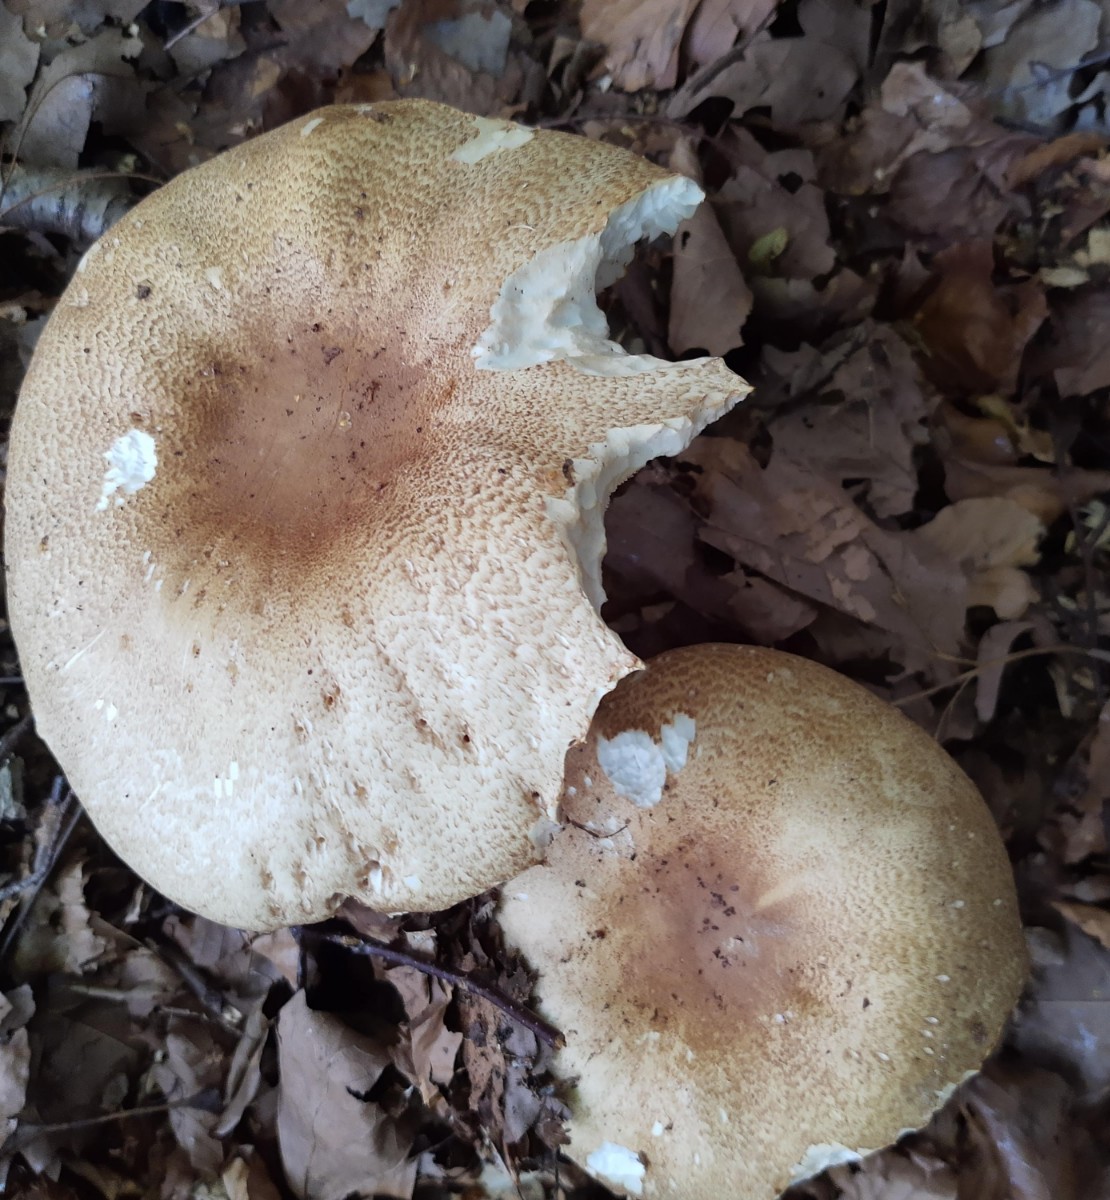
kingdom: Fungi
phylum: Basidiomycota
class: Agaricomycetes
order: Agaricales
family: Agaricaceae
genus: Agaricus
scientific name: Agaricus augustus
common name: prægtig champignon
